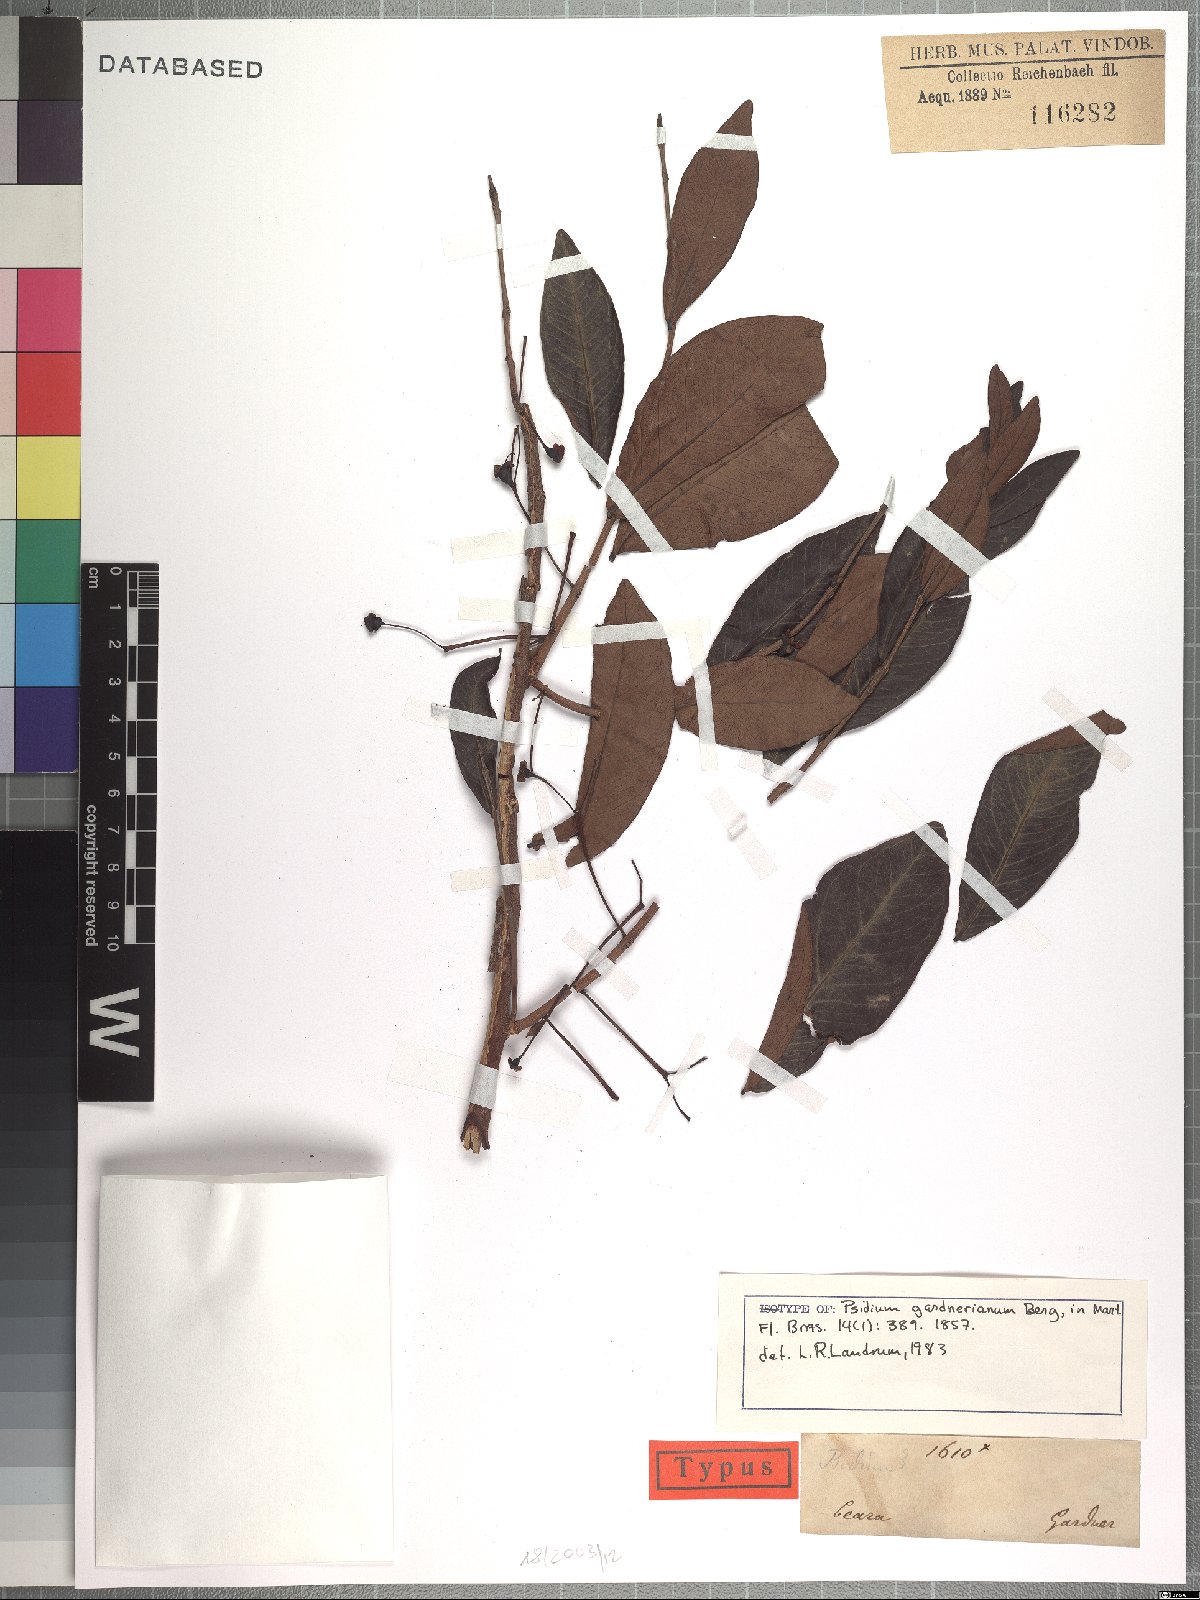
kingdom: Plantae
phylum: Tracheophyta
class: Magnoliopsida
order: Myrtales
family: Myrtaceae
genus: Psidium
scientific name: Psidium myrsinites
